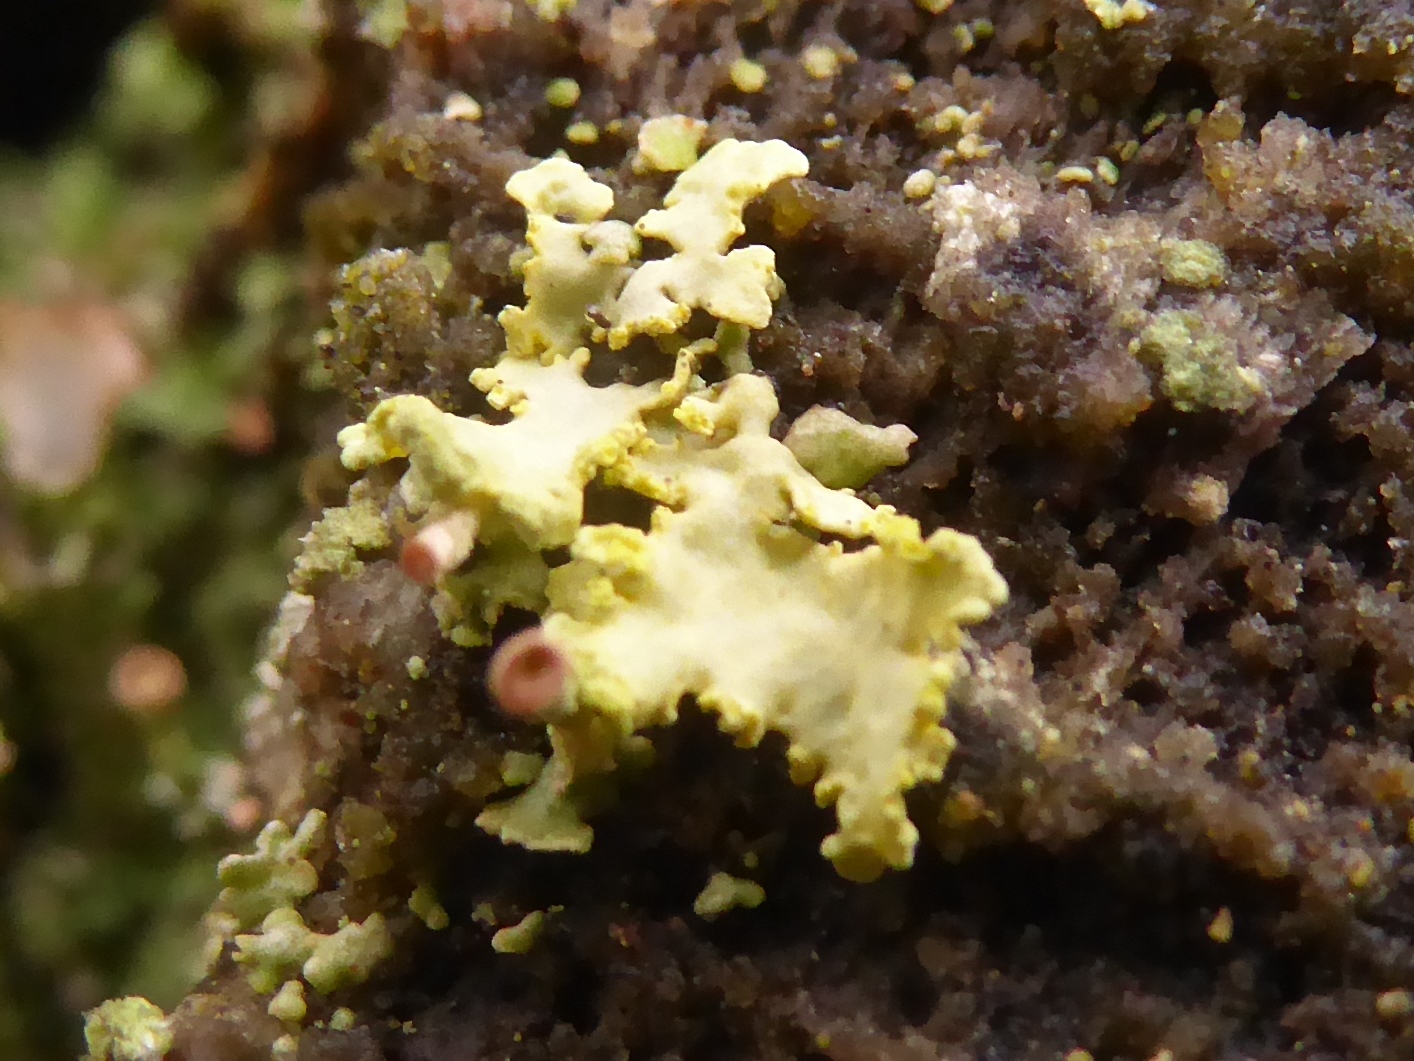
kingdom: Fungi
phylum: Ascomycota
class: Lecanoromycetes
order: Lecanorales
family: Parmeliaceae
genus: Vulpicida
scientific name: Vulpicida pinastri
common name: gul kruslav
